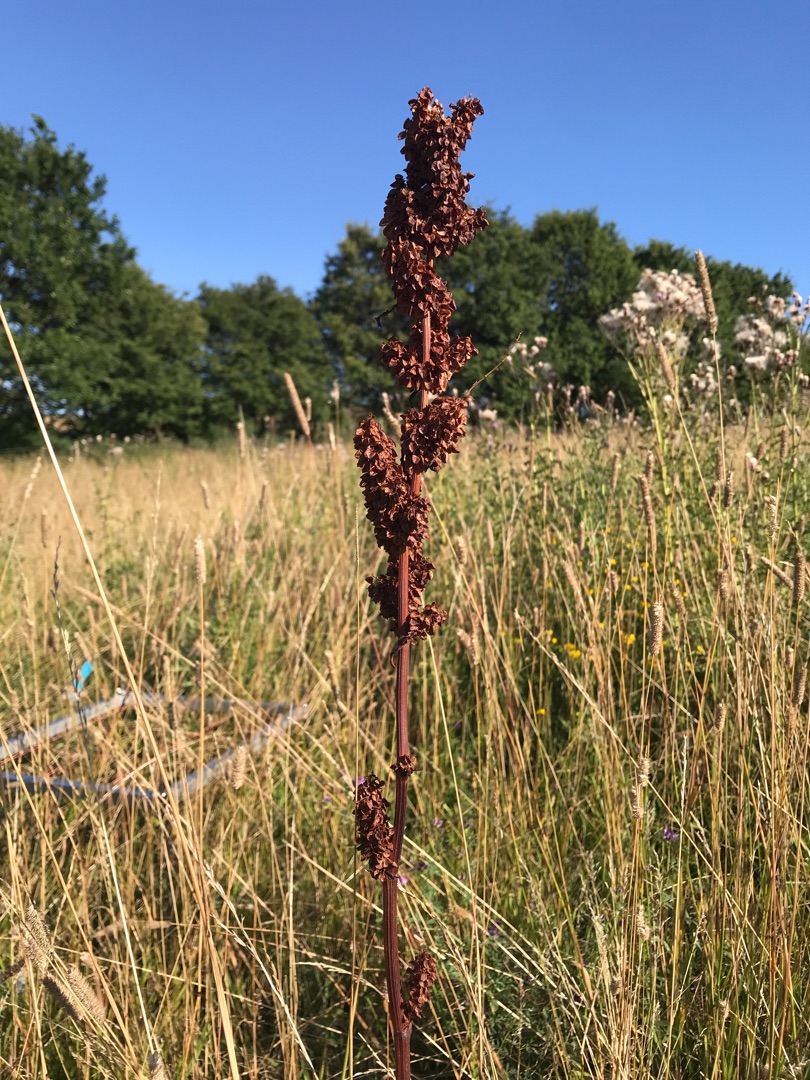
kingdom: Plantae
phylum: Tracheophyta
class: Magnoliopsida
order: Caryophyllales
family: Polygonaceae
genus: Rumex
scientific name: Rumex longifolius
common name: By-skræppe
